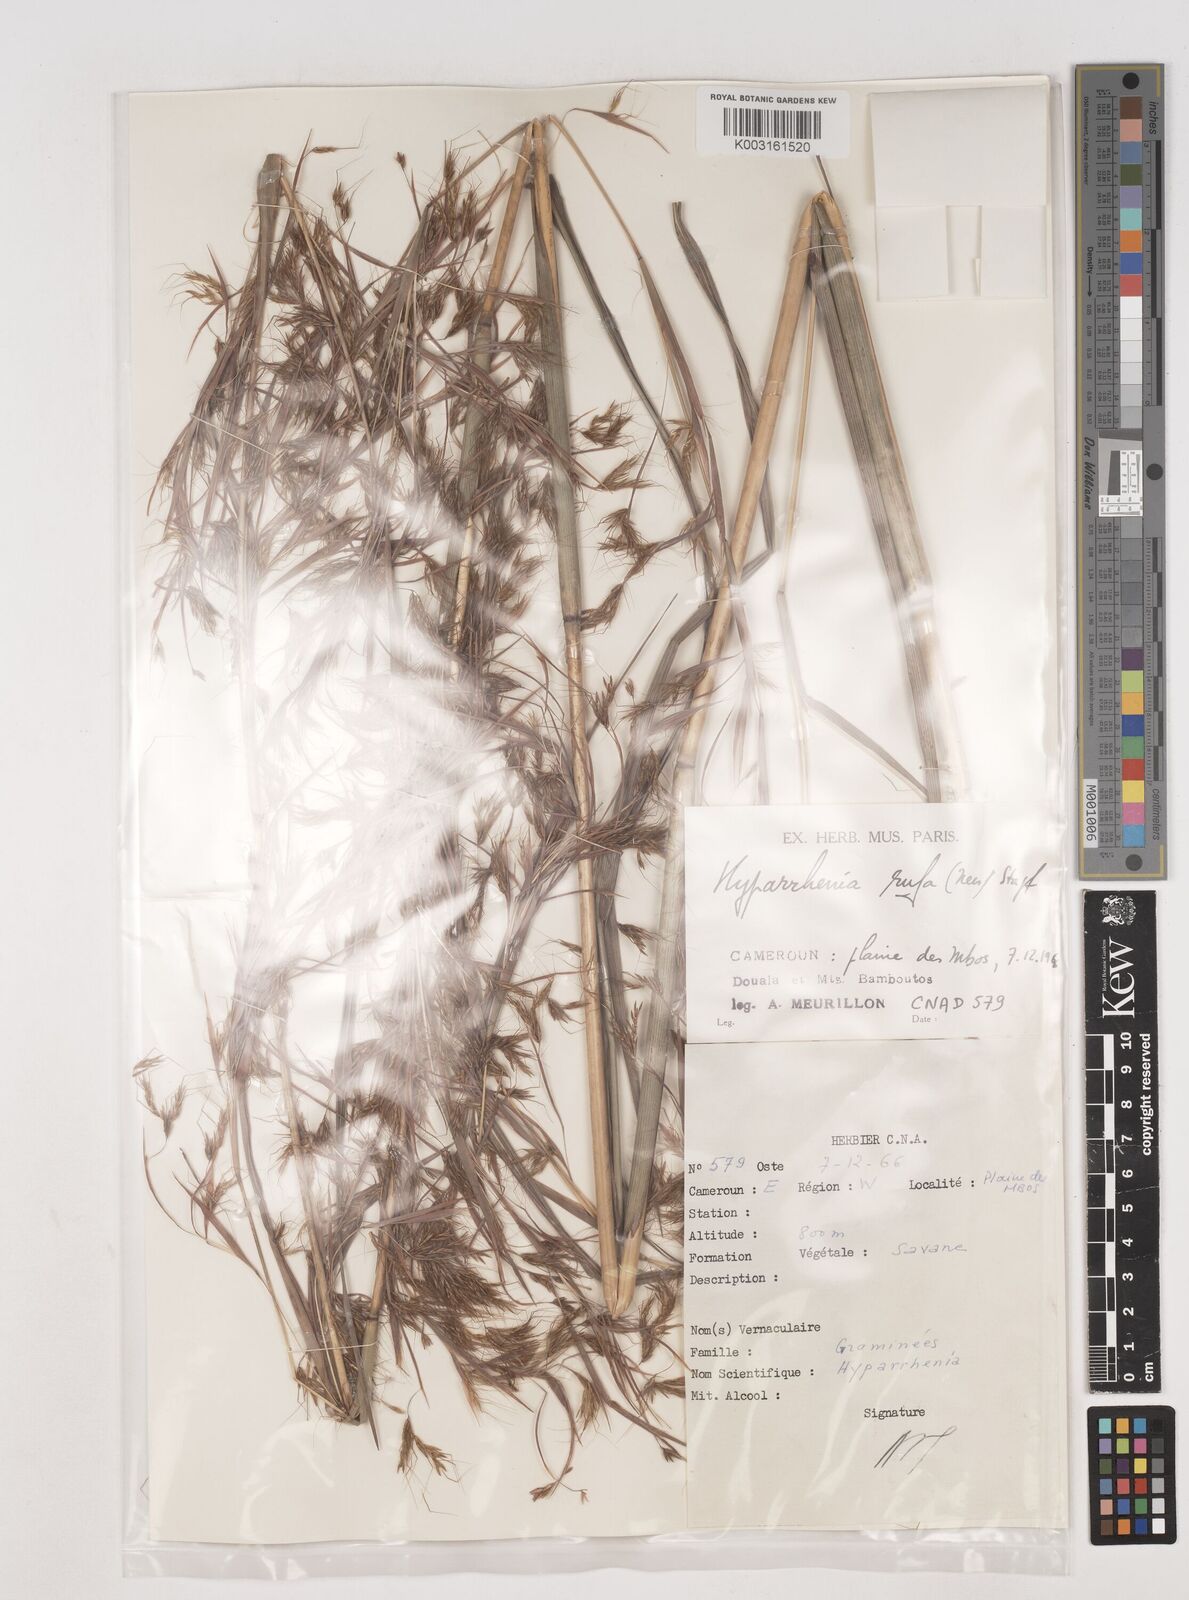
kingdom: Plantae
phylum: Tracheophyta
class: Liliopsida
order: Poales
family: Poaceae
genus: Hyparrhenia
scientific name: Hyparrhenia rufa
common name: Jaraguagrass
